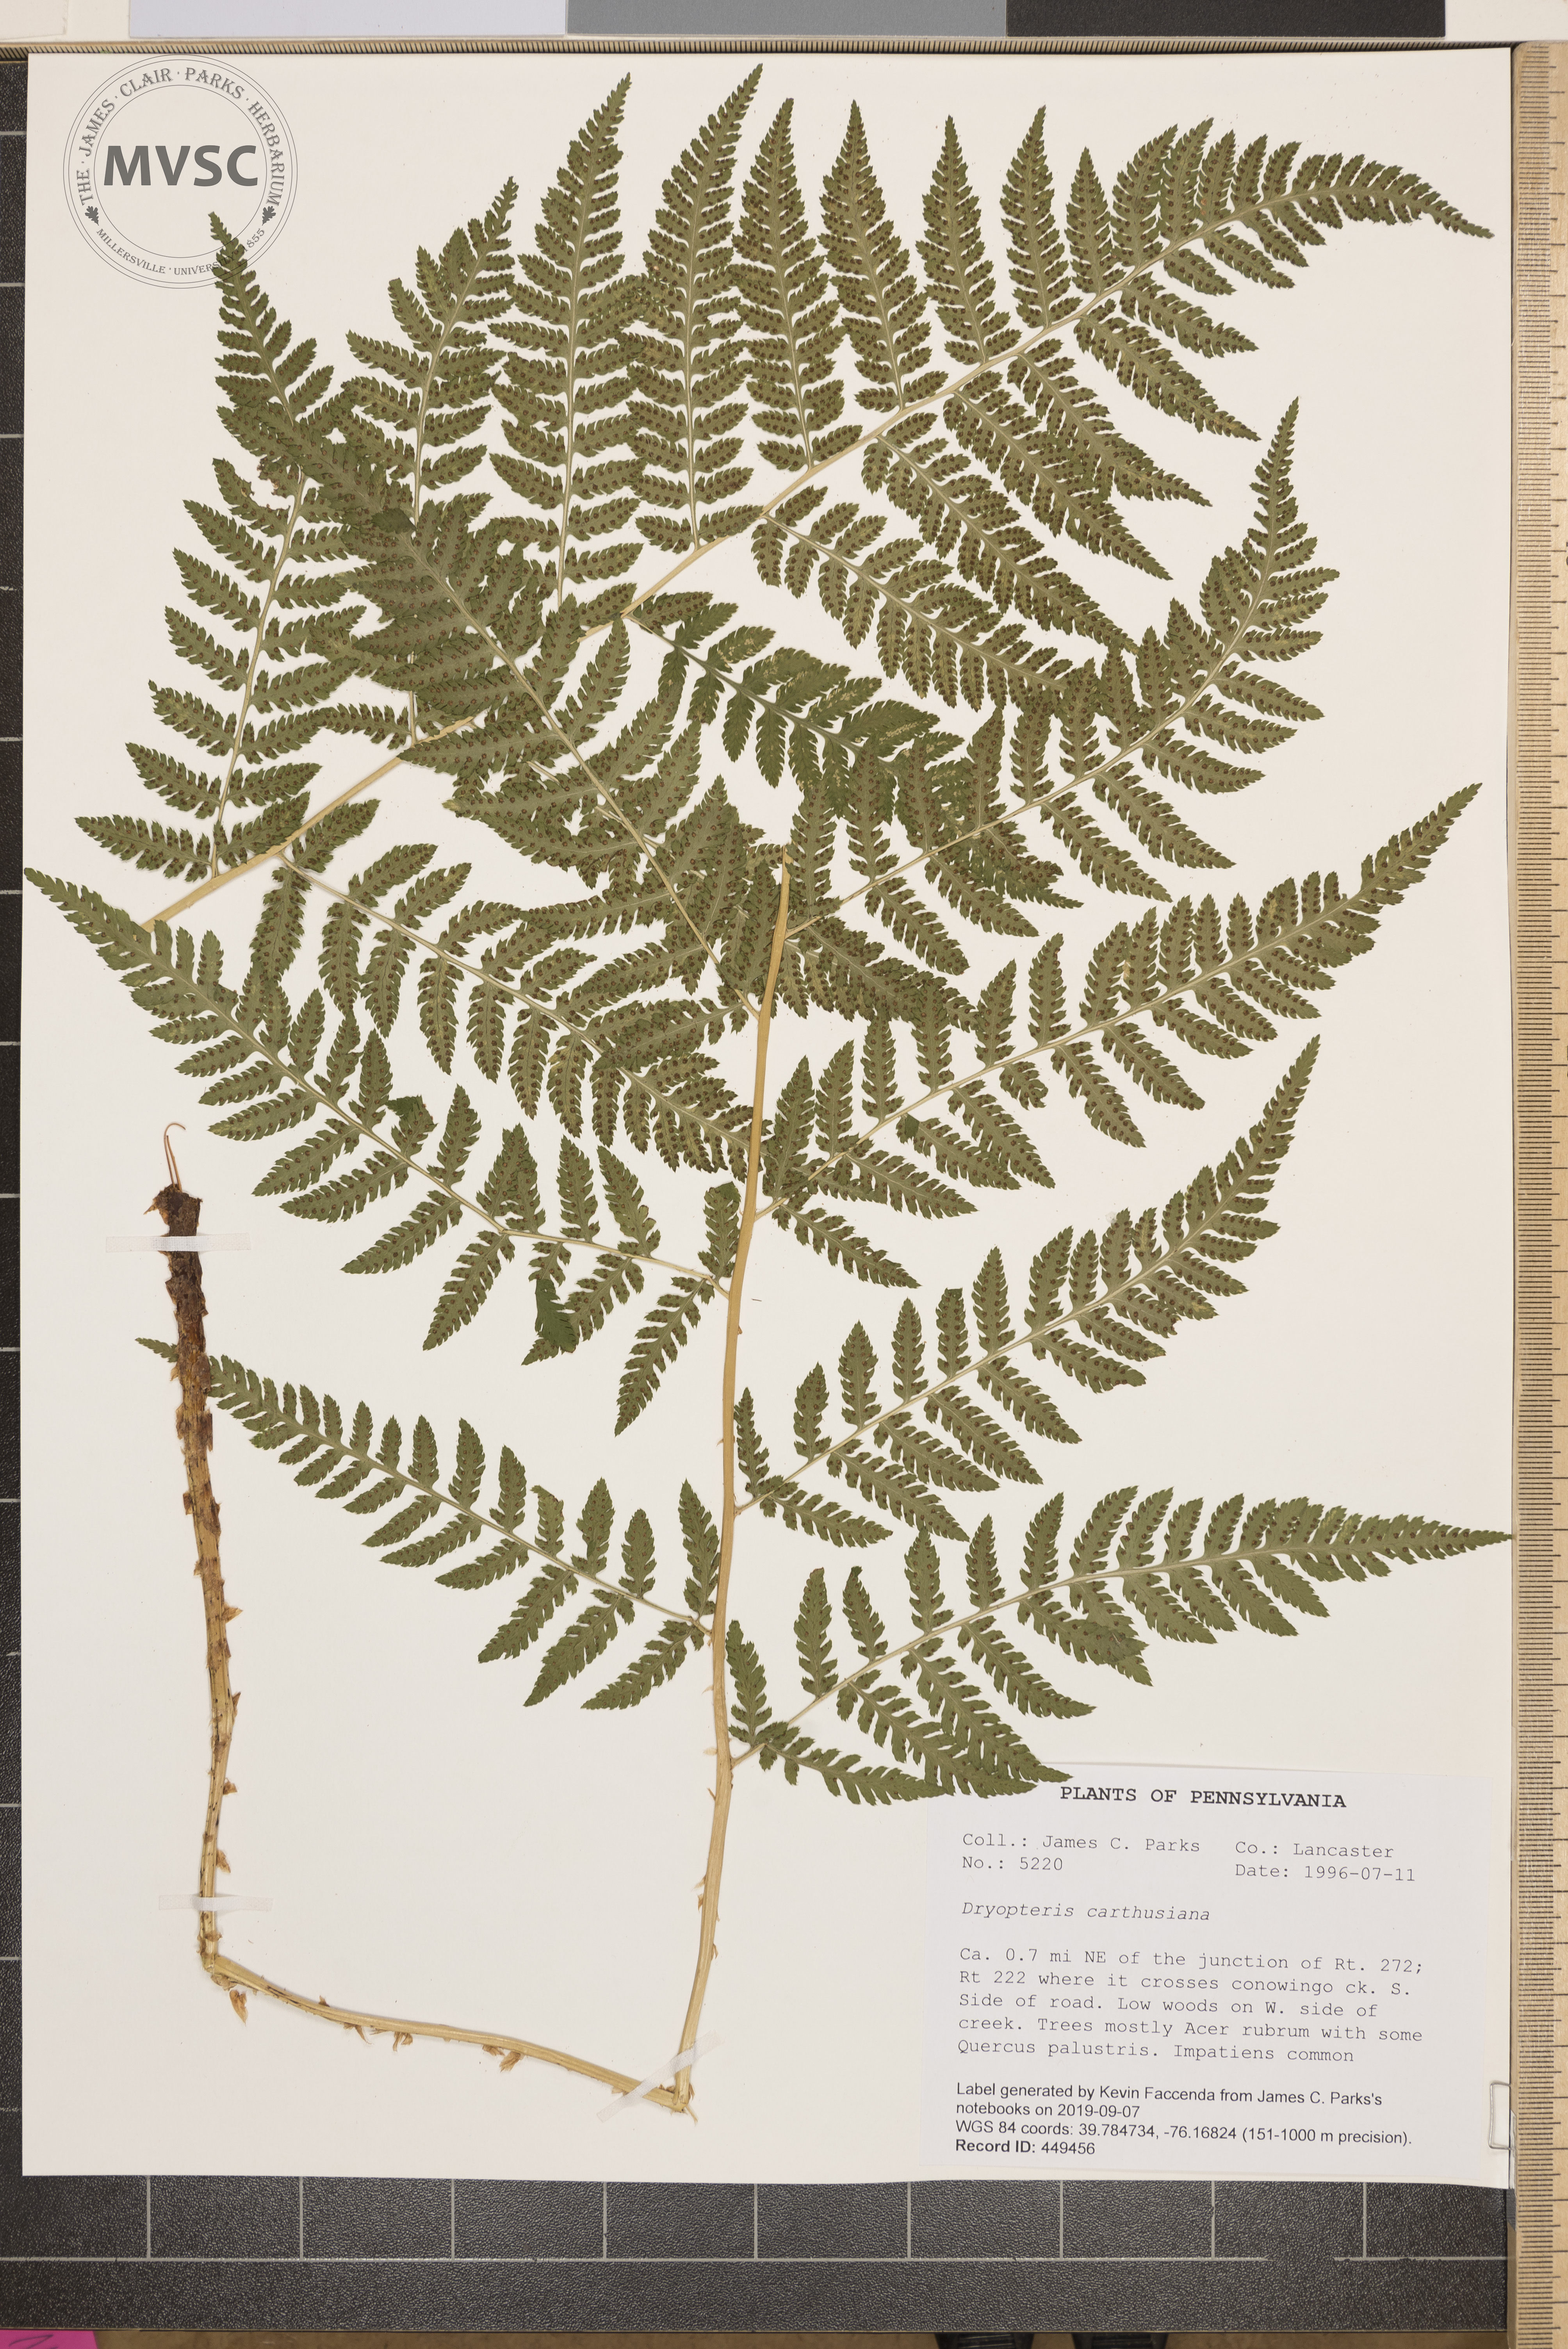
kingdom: Plantae
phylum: Tracheophyta
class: Polypodiopsida
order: Polypodiales
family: Dryopteridaceae
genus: Dryopteris
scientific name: Dryopteris carthusiana
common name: Narrow buckler-fern
